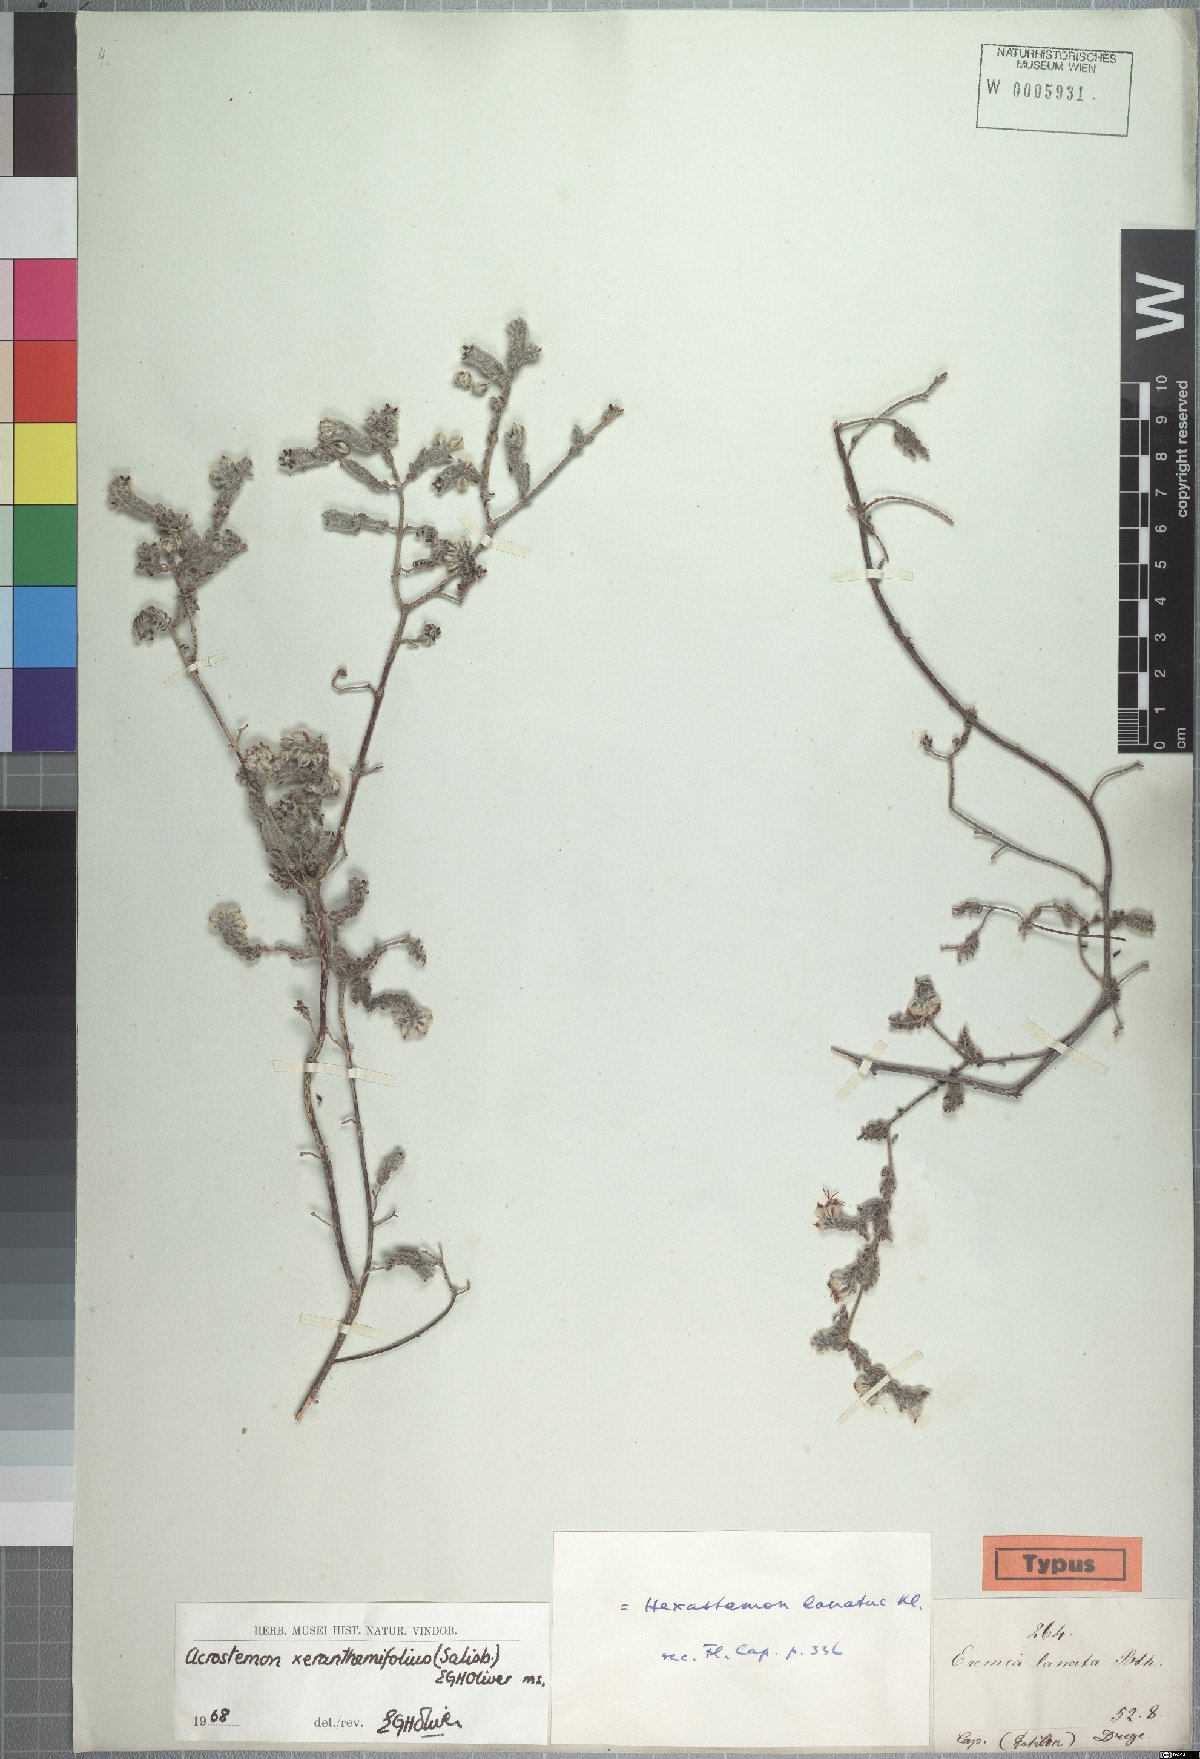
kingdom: Plantae
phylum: Tracheophyta
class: Magnoliopsida
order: Ericales
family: Ericaceae
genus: Erica
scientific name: Erica xeranthemifolia
